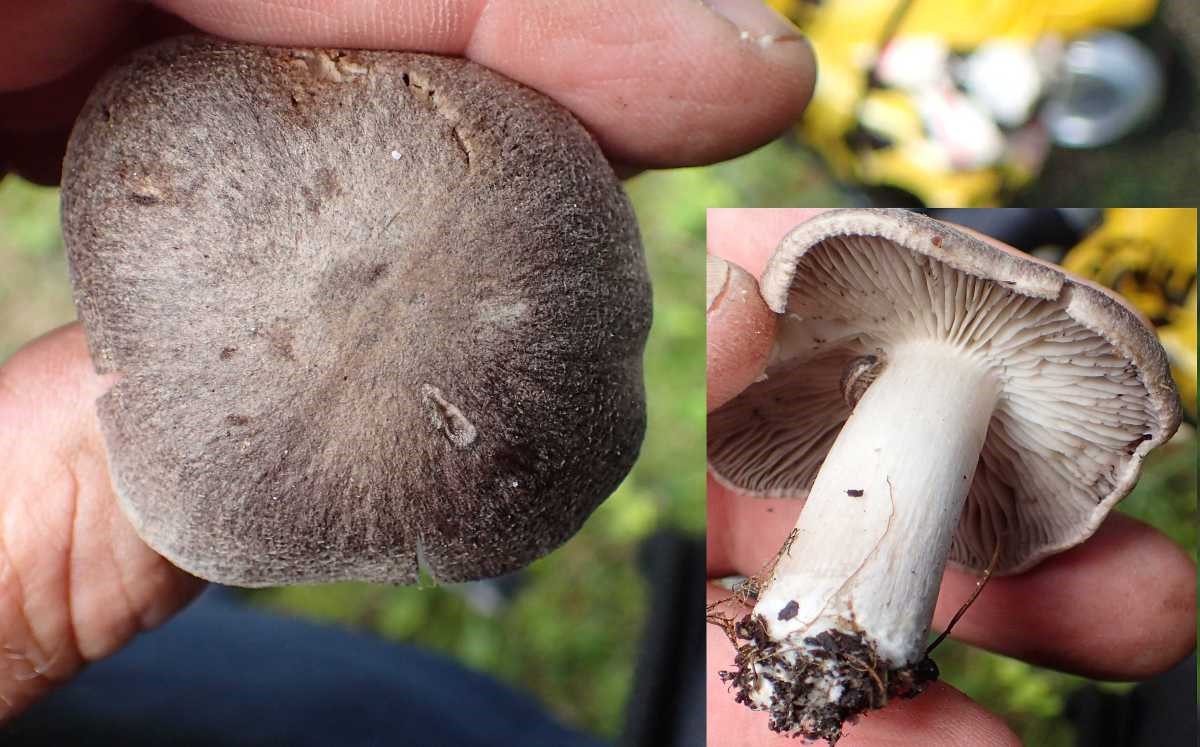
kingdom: Fungi
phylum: Basidiomycota
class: Agaricomycetes
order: Agaricales
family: Tricholomataceae
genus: Tricholoma
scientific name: Tricholoma terreum
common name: jordfarvet ridderhat
